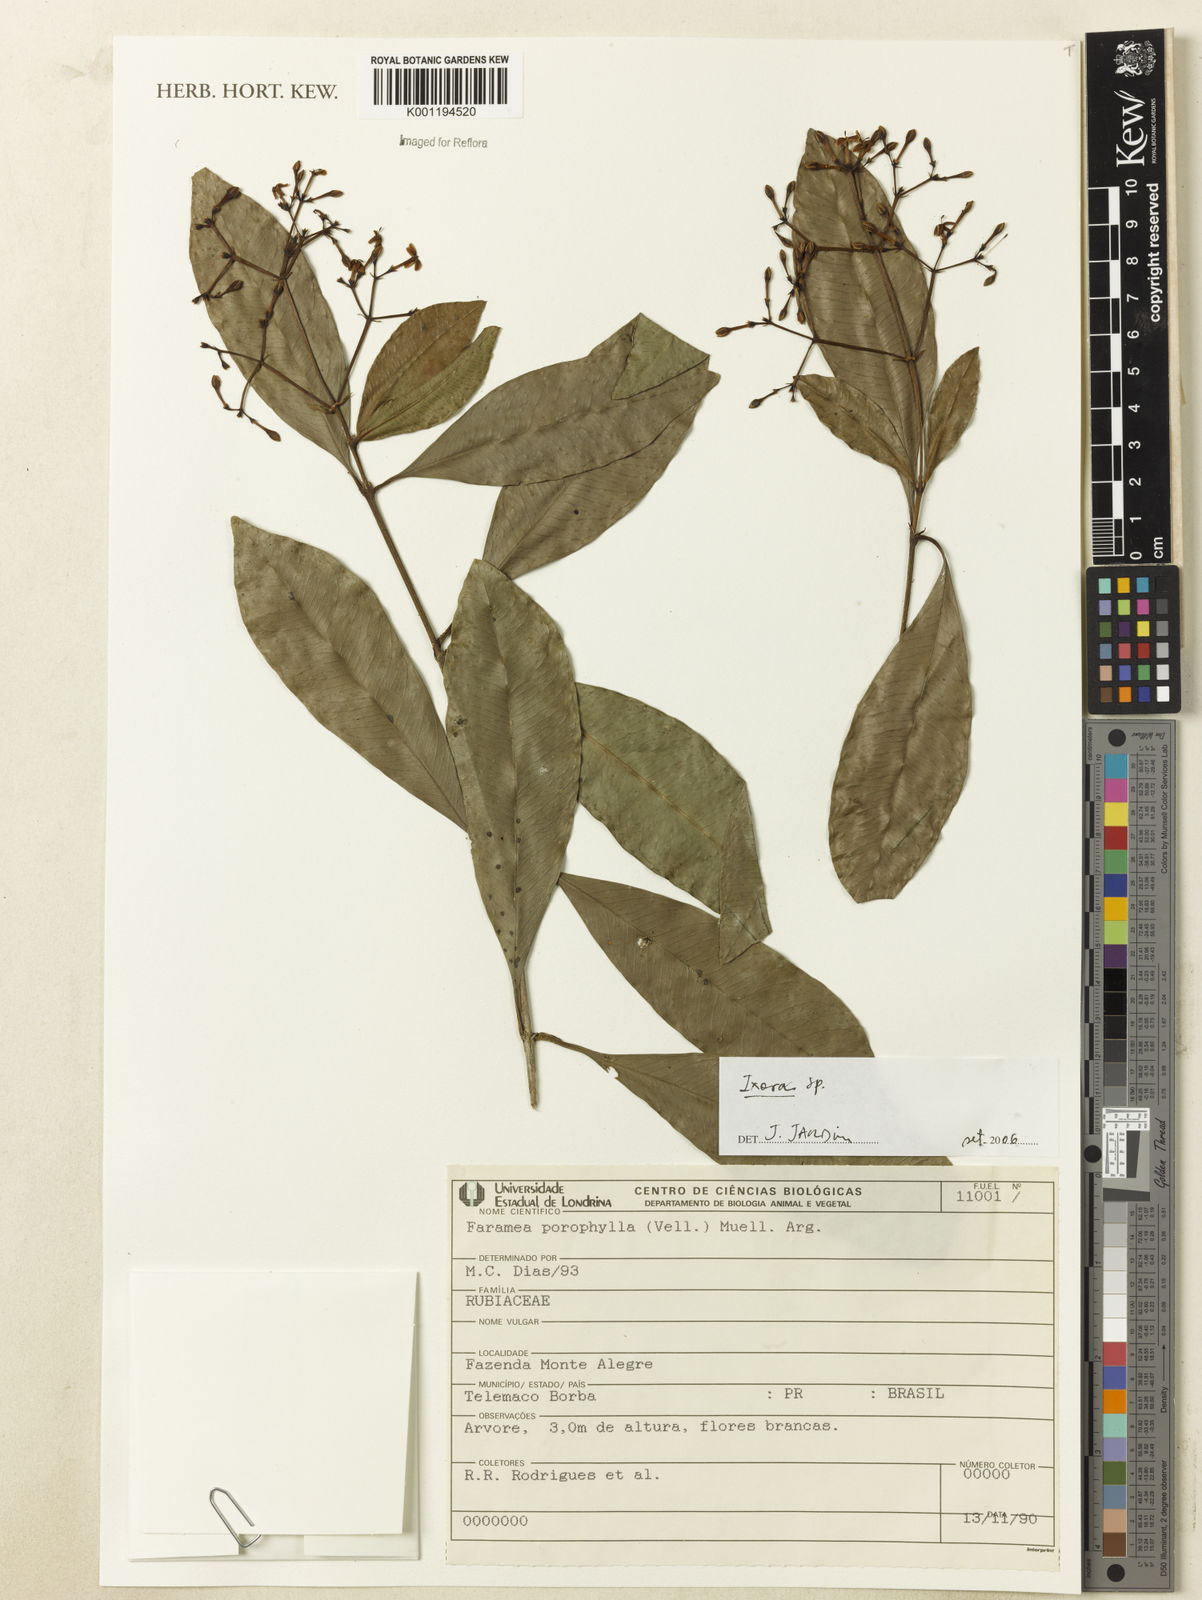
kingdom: Plantae
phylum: Tracheophyta
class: Magnoliopsida
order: Gentianales
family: Rubiaceae
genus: Ixora
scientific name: Ixora
